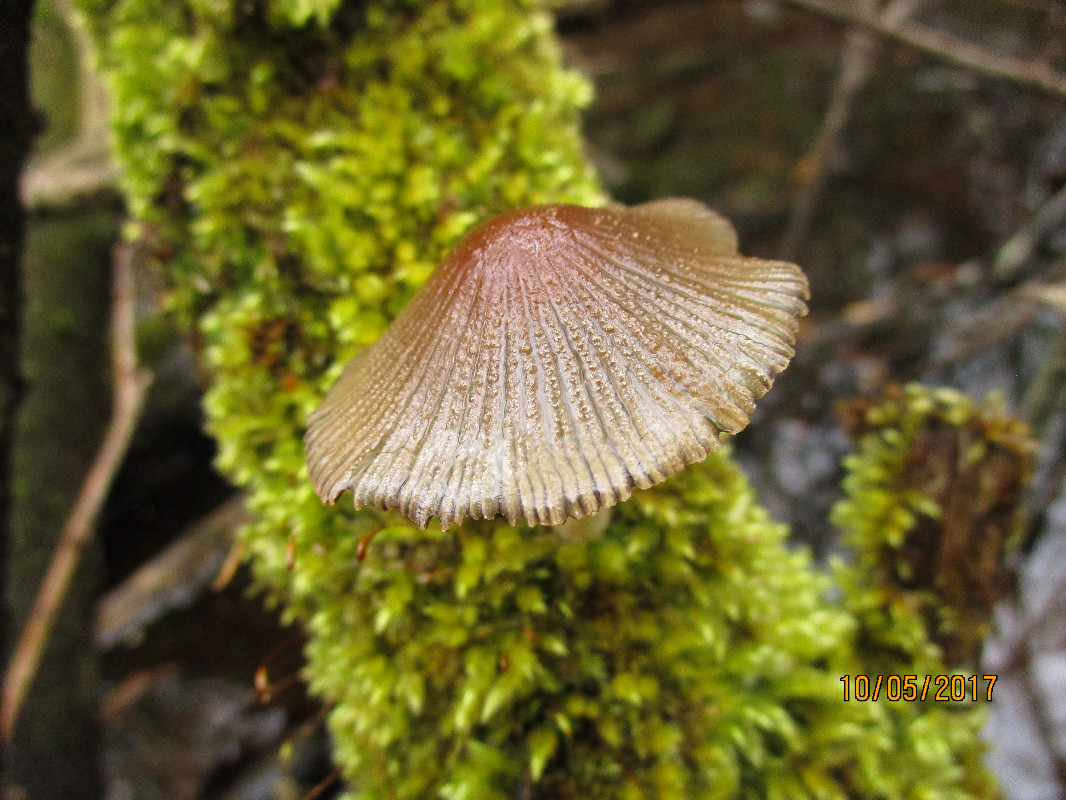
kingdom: Fungi
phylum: Basidiomycota
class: Agaricomycetes
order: Agaricales
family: Psathyrellaceae
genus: Coprinellus
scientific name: Coprinellus
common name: blækhat
